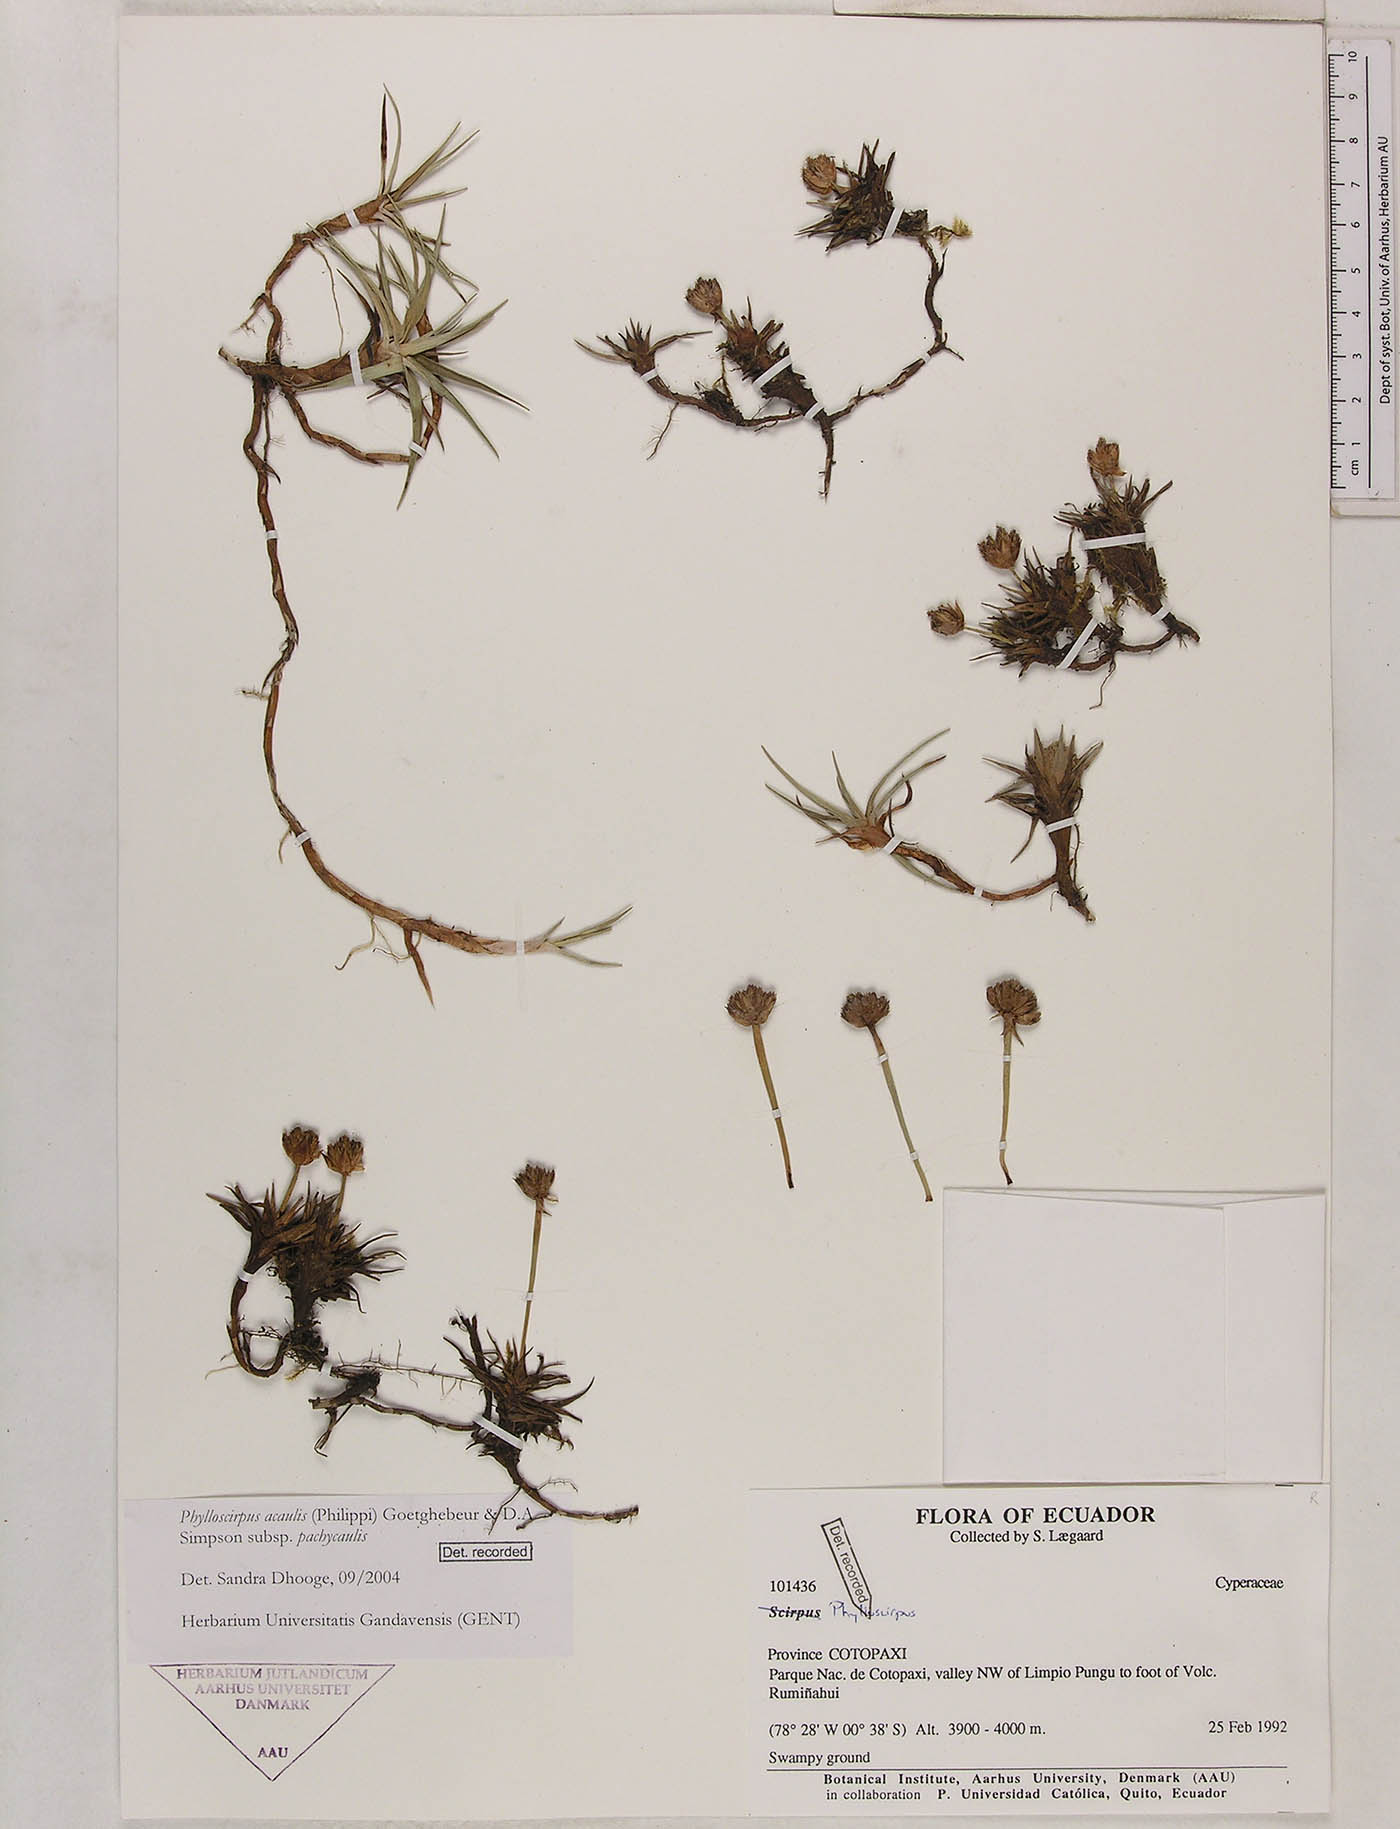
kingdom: Plantae
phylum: Tracheophyta
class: Liliopsida
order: Poales
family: Cyperaceae
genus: Phylloscirpus
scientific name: Phylloscirpus acaulis
